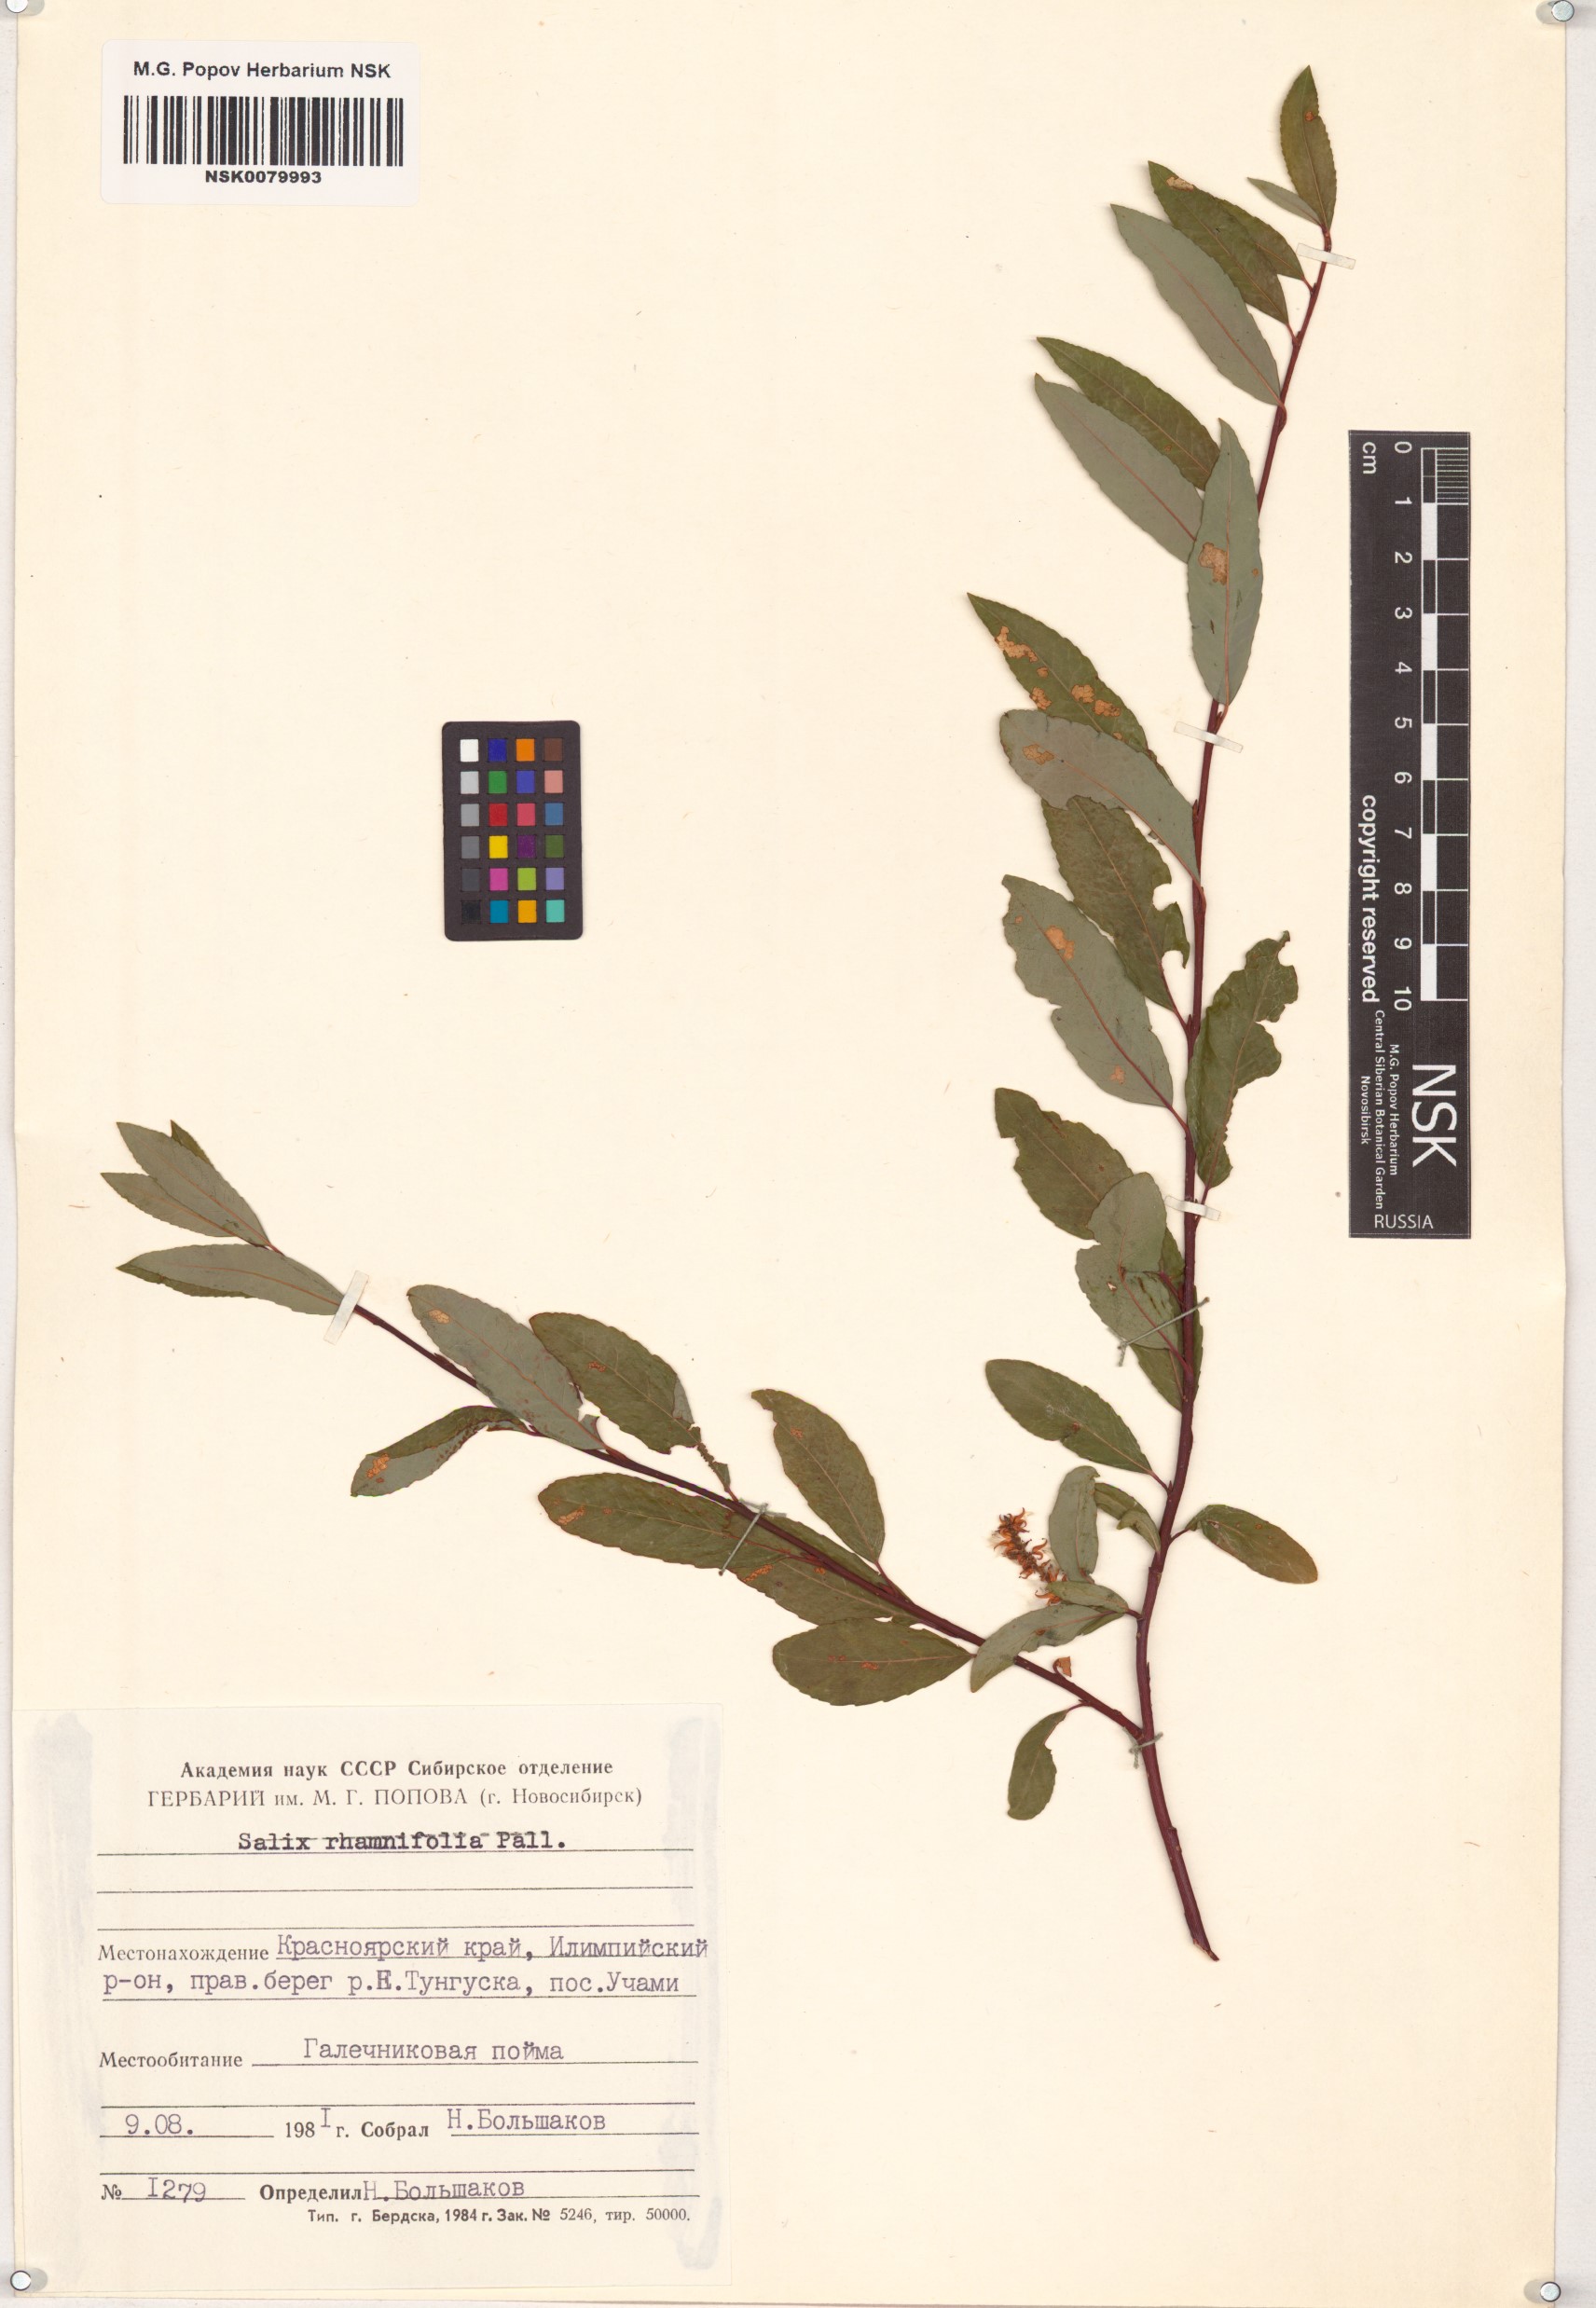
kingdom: Plantae
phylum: Tracheophyta
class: Magnoliopsida
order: Malpighiales
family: Salicaceae
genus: Salix
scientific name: Salix rhamnifolia
